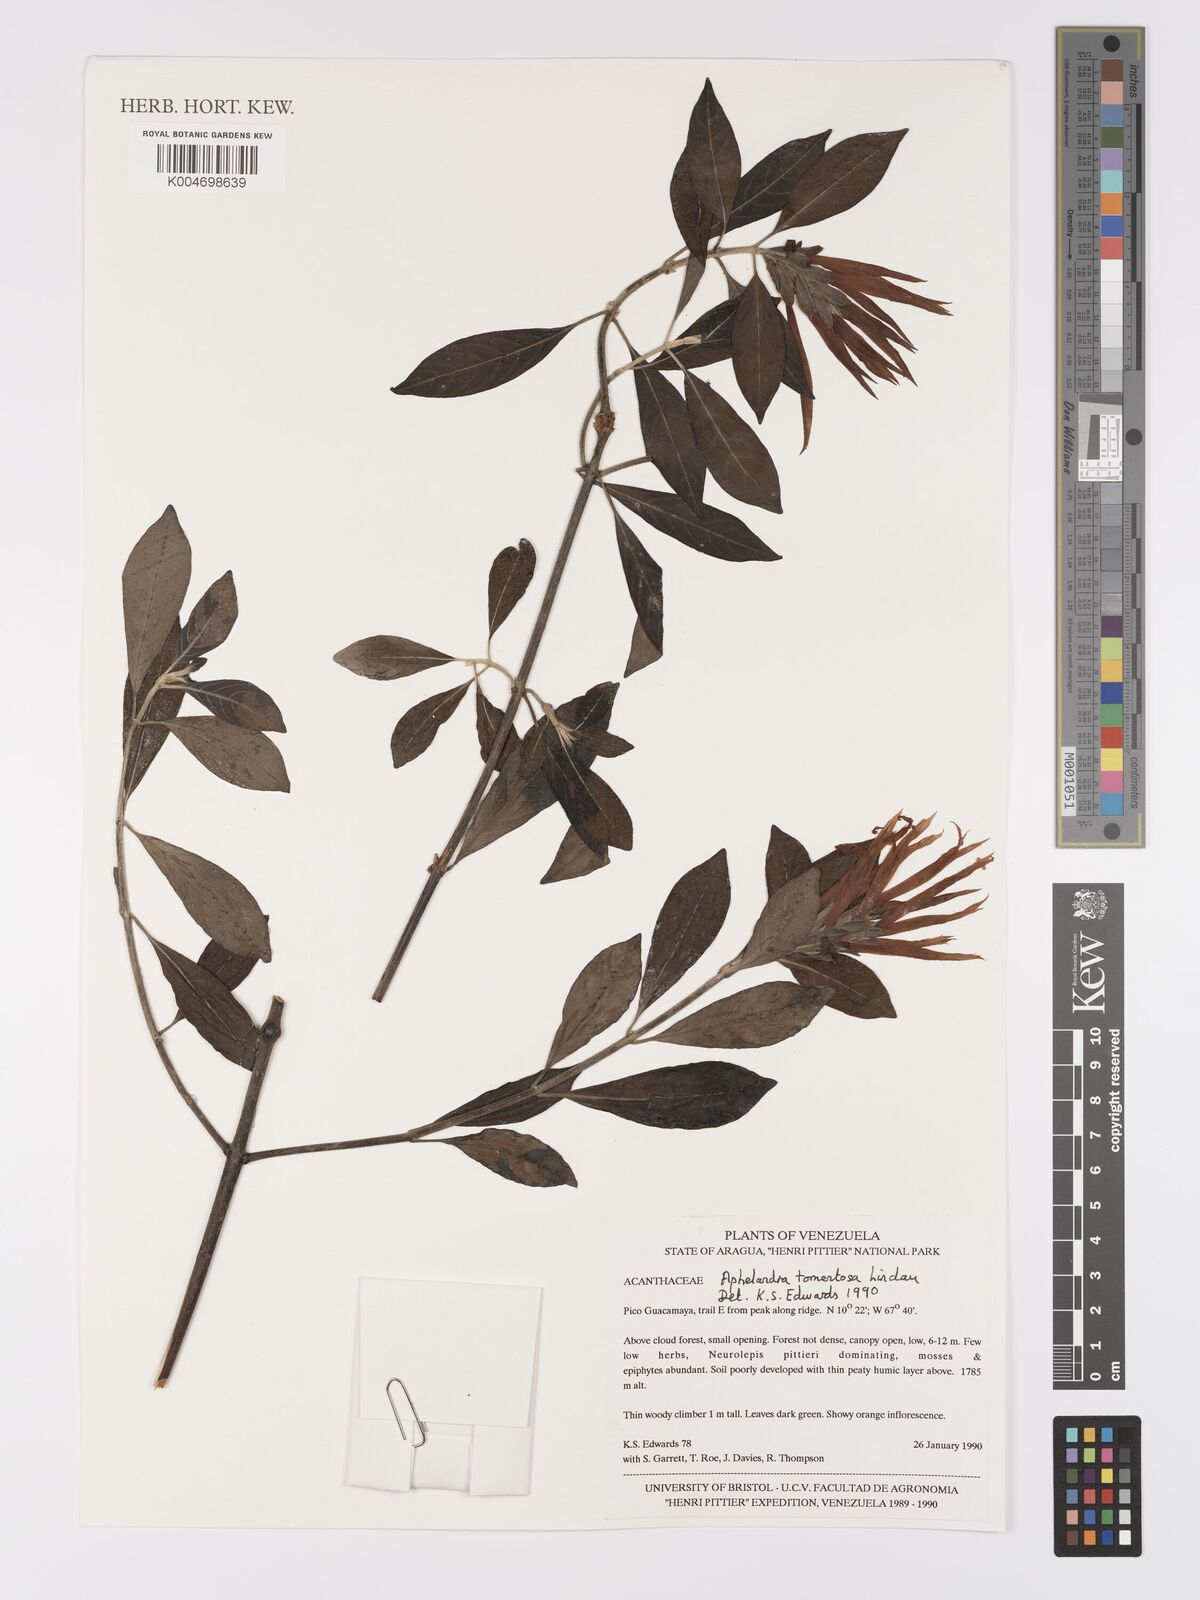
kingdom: Plantae
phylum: Tracheophyta
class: Magnoliopsida
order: Lamiales
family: Acanthaceae
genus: Aphelandra
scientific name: Aphelandra tomentosa
